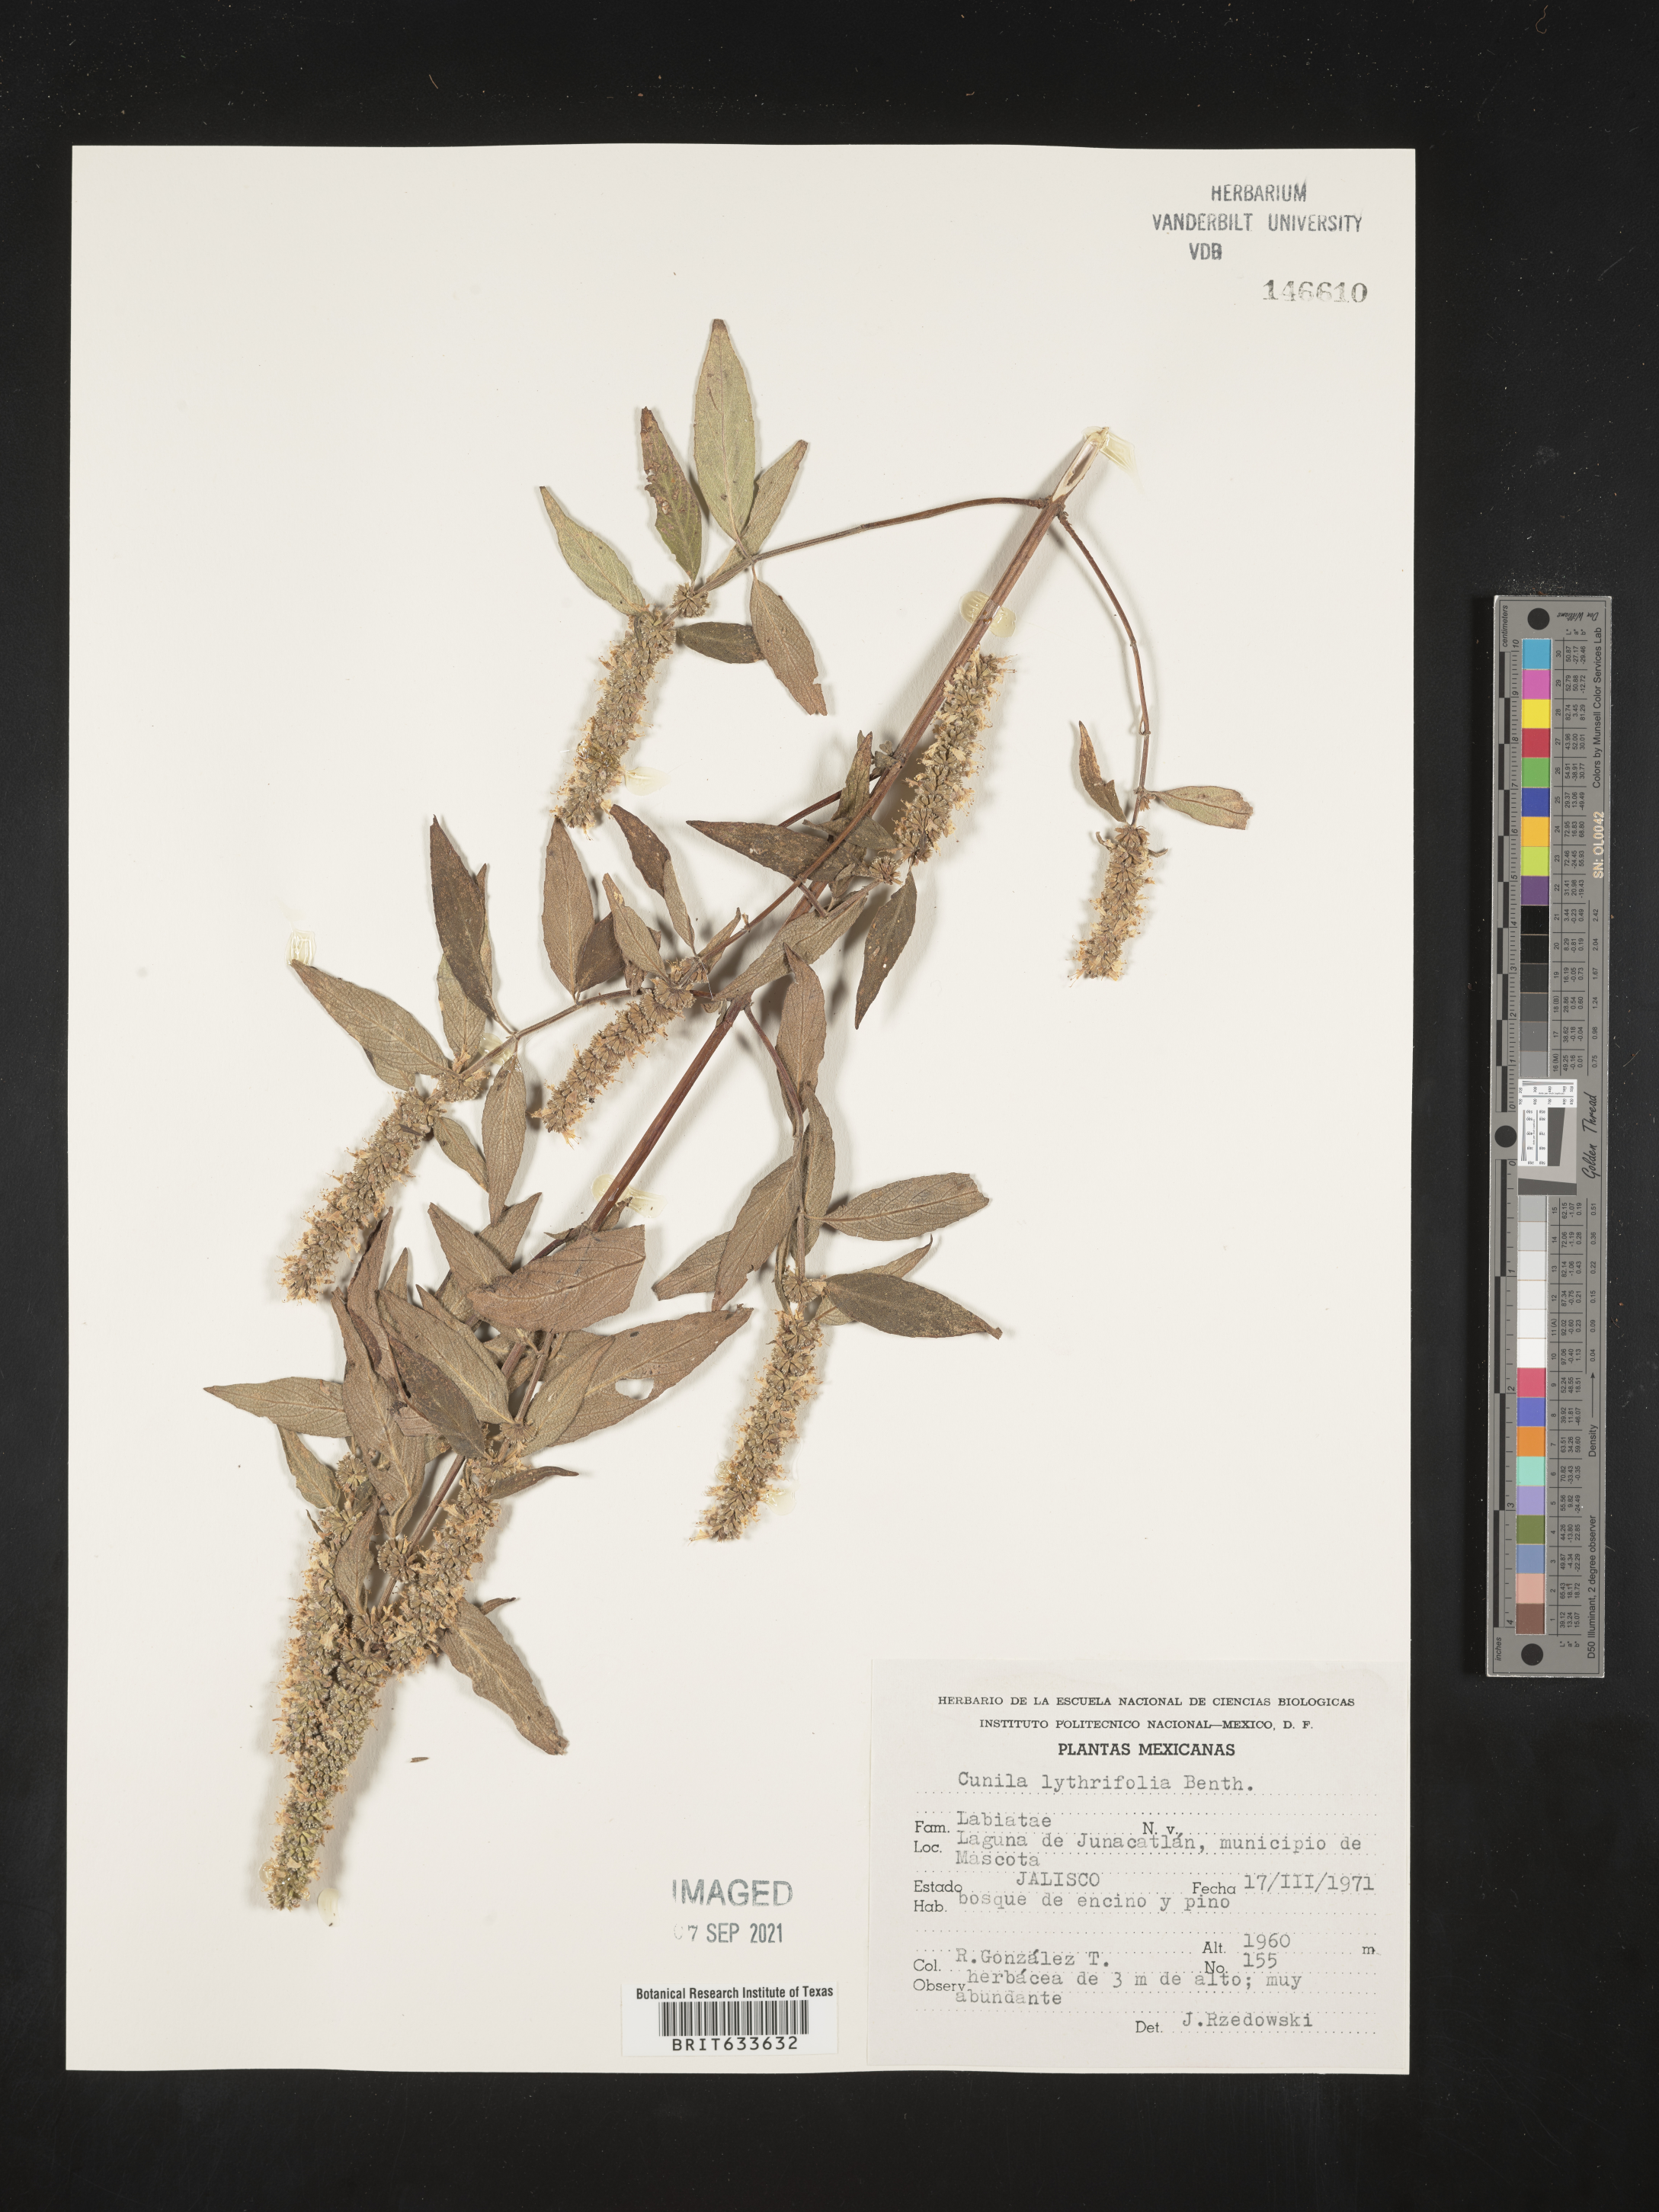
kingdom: Plantae
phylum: Tracheophyta
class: Magnoliopsida
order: Lamiales
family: Lamiaceae
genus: Cunila
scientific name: Cunila
